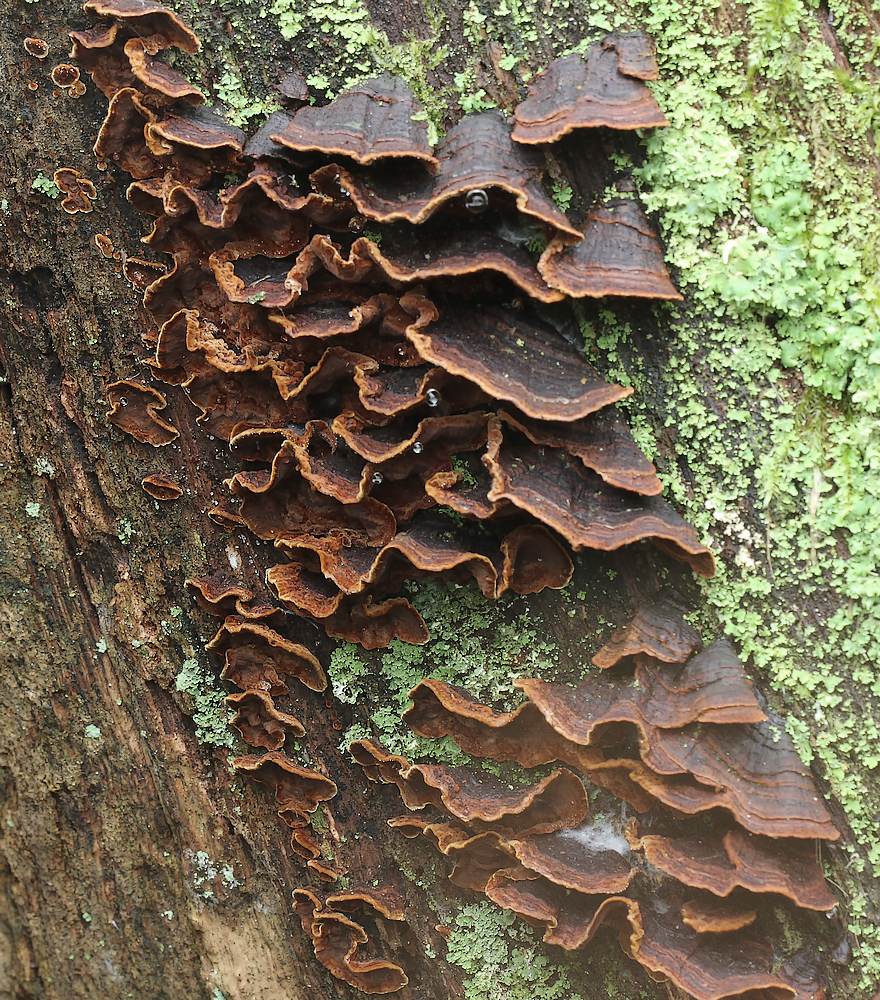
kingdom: Fungi
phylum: Basidiomycota
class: Agaricomycetes
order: Hymenochaetales
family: Hymenochaetaceae
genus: Hymenochaete
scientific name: Hymenochaete rubiginosa
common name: stiv ruslædersvamp
